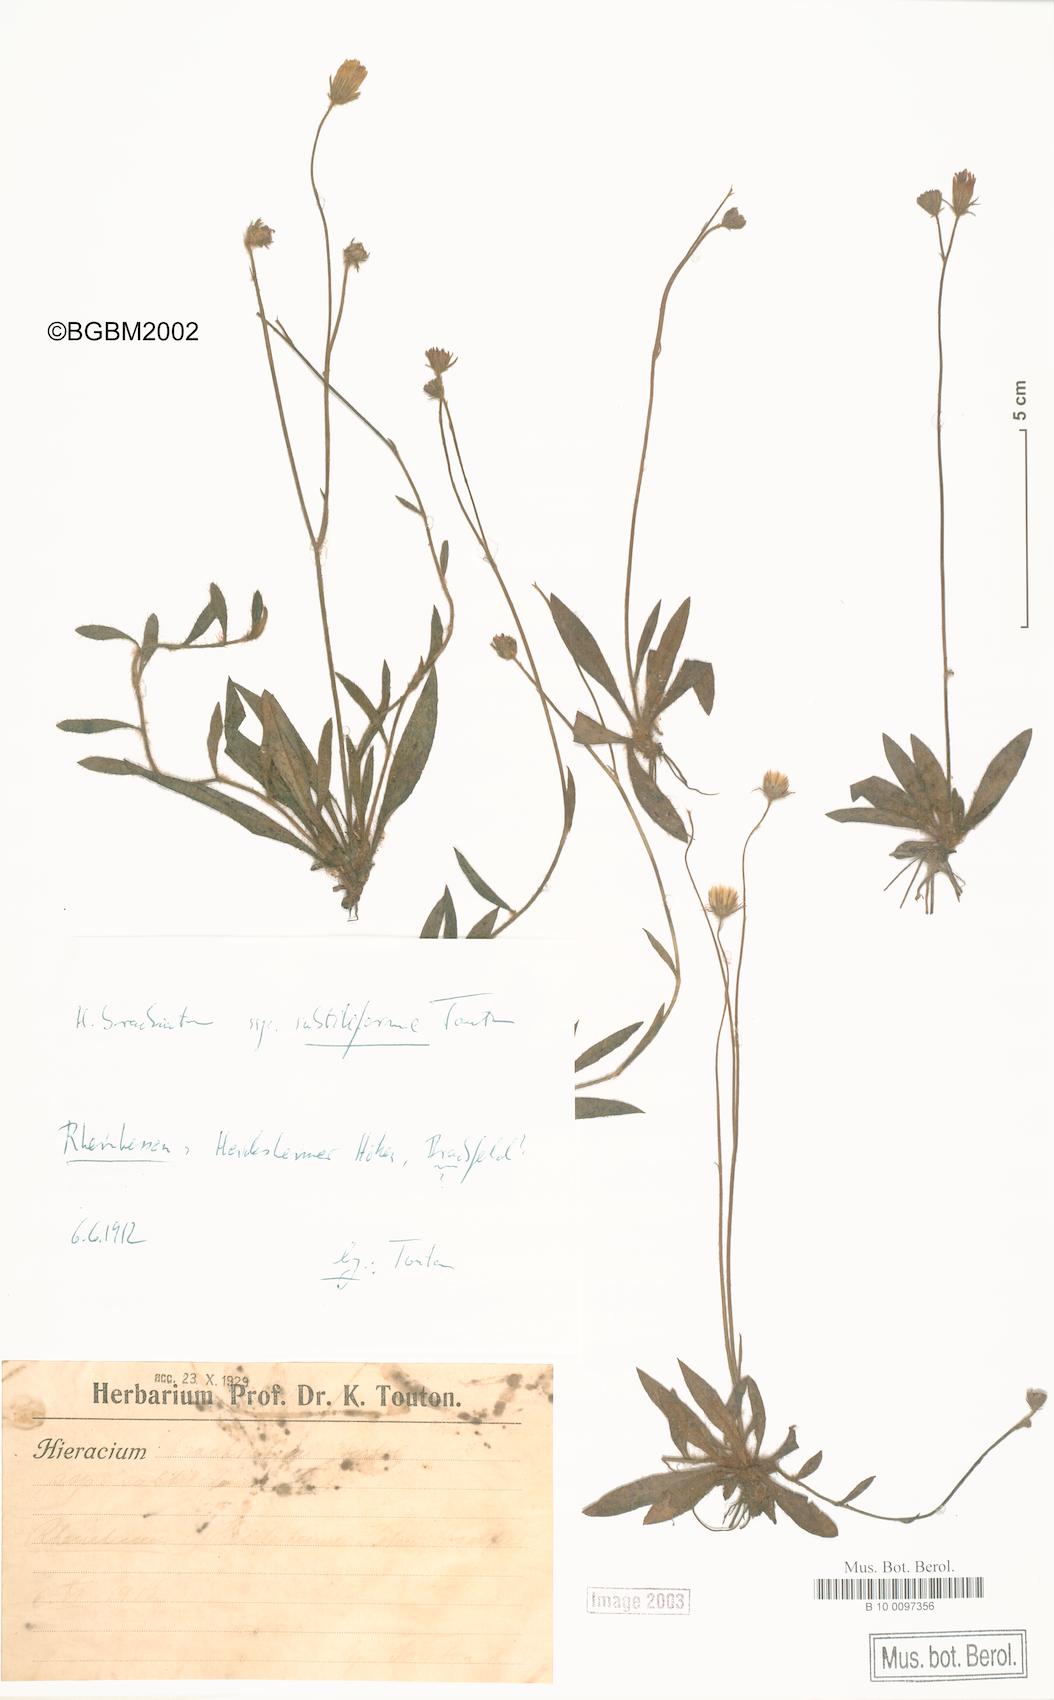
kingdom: Plantae
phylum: Tracheophyta
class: Magnoliopsida
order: Asterales
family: Asteraceae
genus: Pilosella
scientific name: Pilosella cinereiformis
